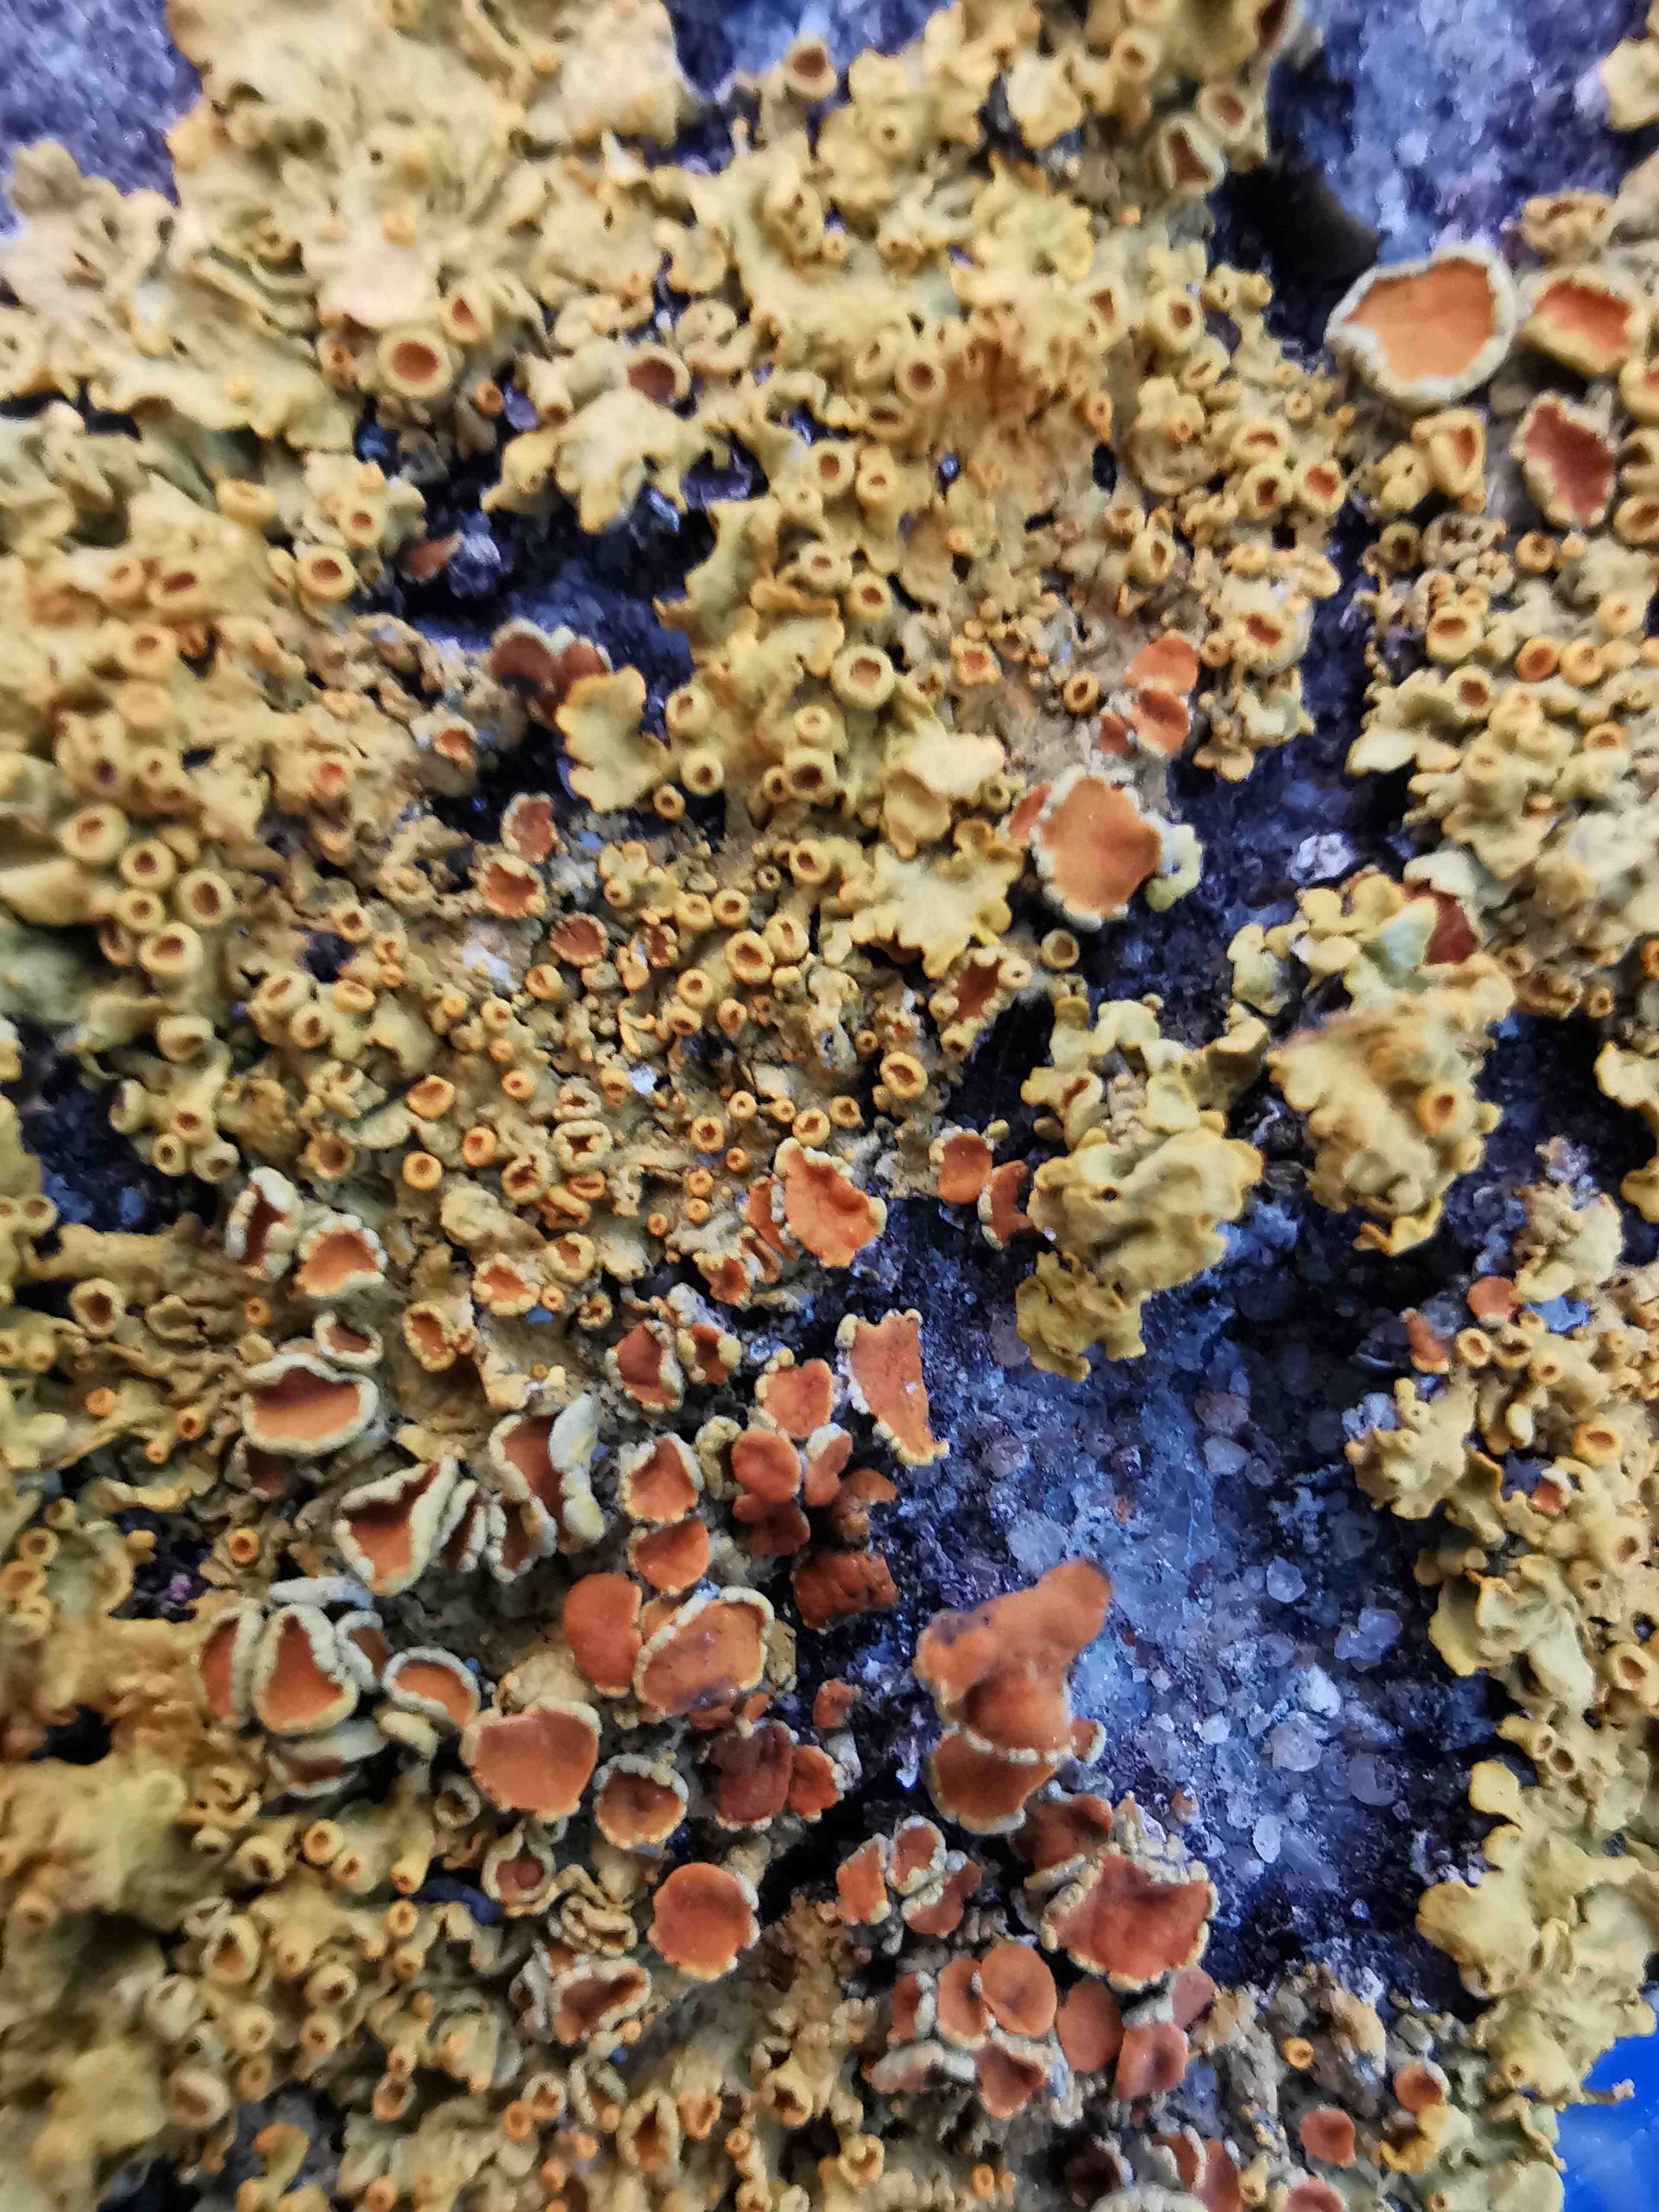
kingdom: Fungi
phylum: Ascomycota
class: Lecanoromycetes
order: Teloschistales
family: Teloschistaceae
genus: Xanthoria
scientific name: Xanthoria parietina
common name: almindelig væggelav
